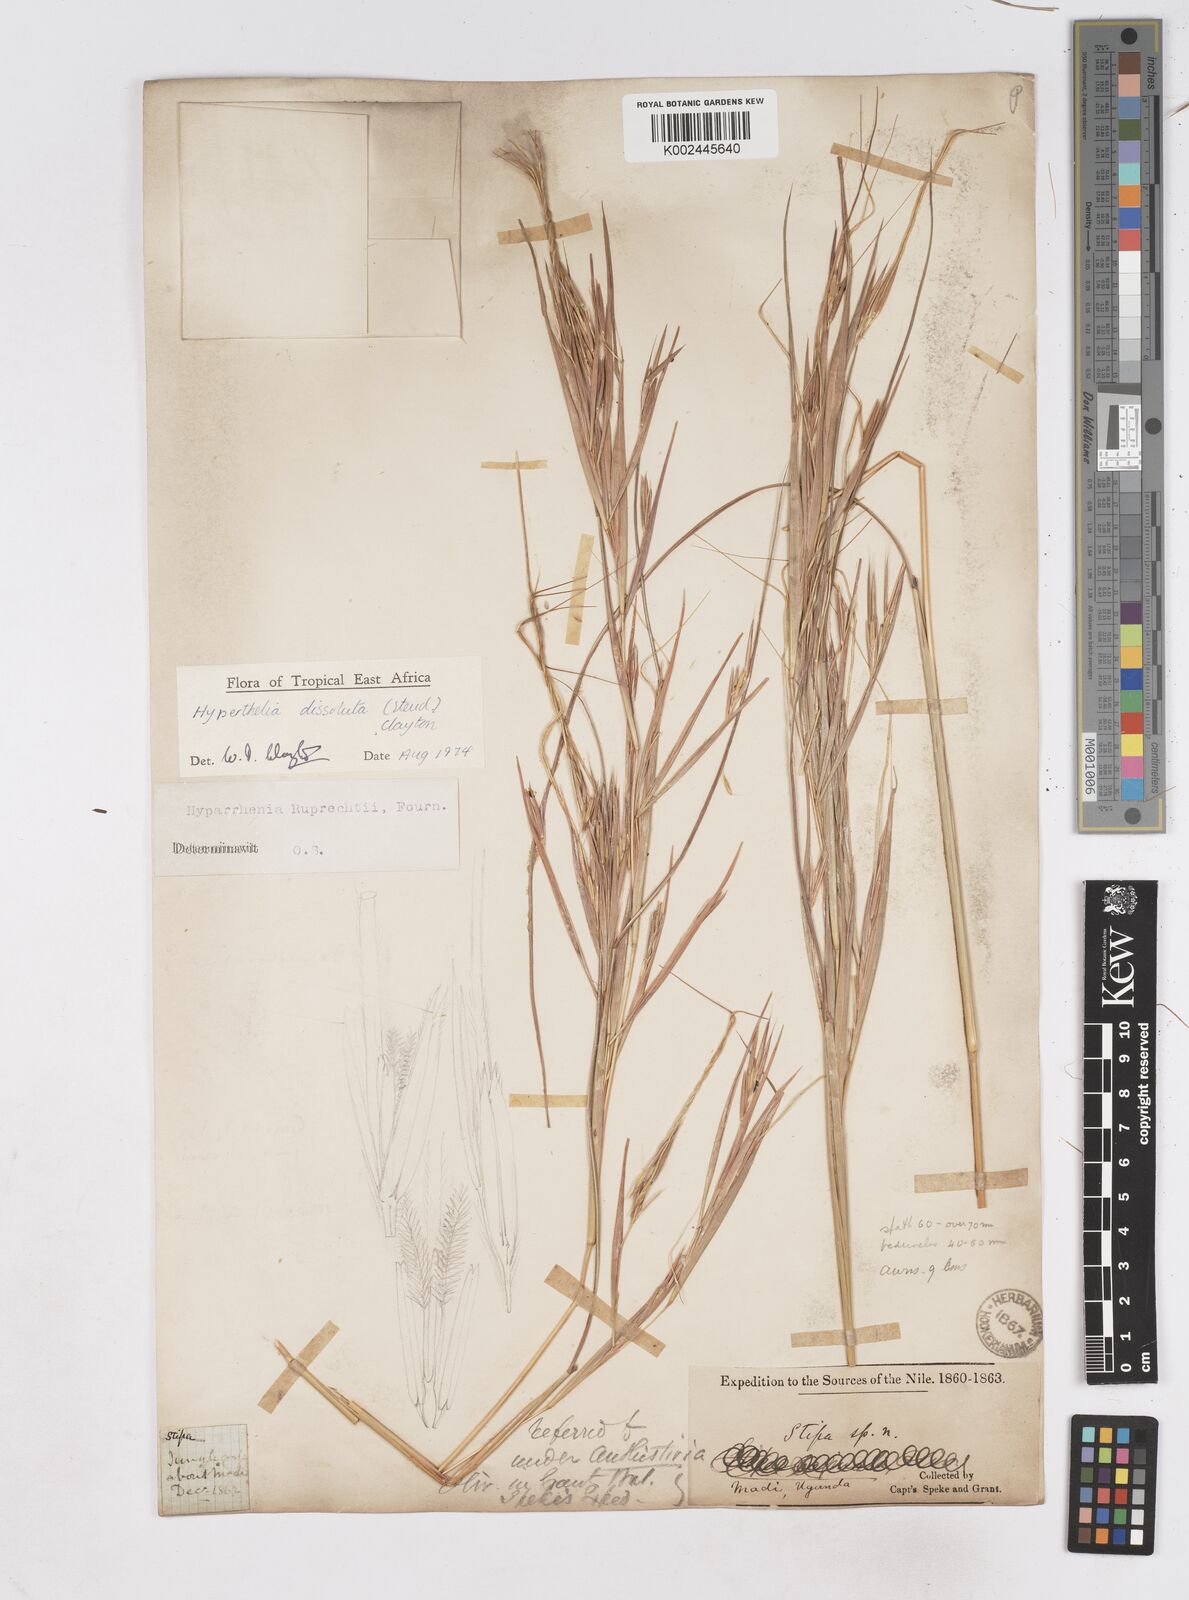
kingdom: Plantae
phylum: Tracheophyta
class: Liliopsida
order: Poales
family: Poaceae
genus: Hyperthelia
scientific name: Hyperthelia dissoluta
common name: Yellow thatching grass
